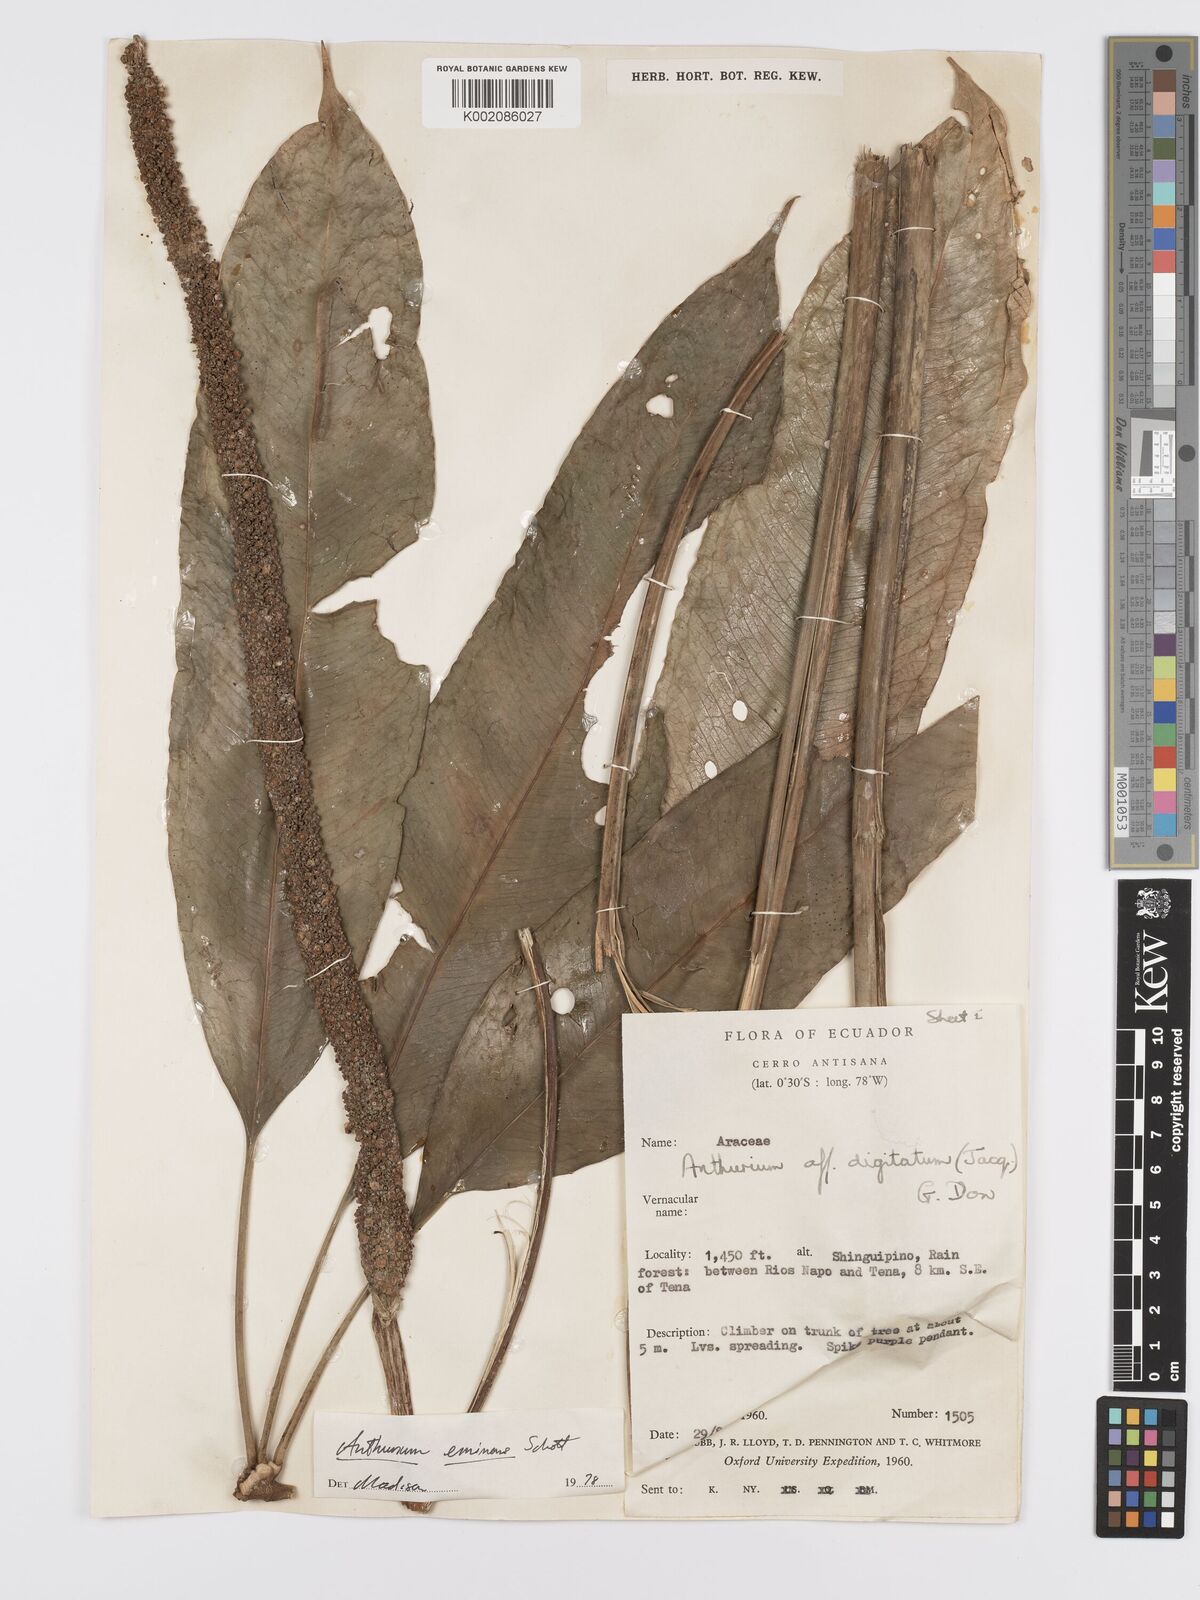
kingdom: Plantae
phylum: Tracheophyta
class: Liliopsida
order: Alismatales
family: Araceae
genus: Anthurium
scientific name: Anthurium eminens
